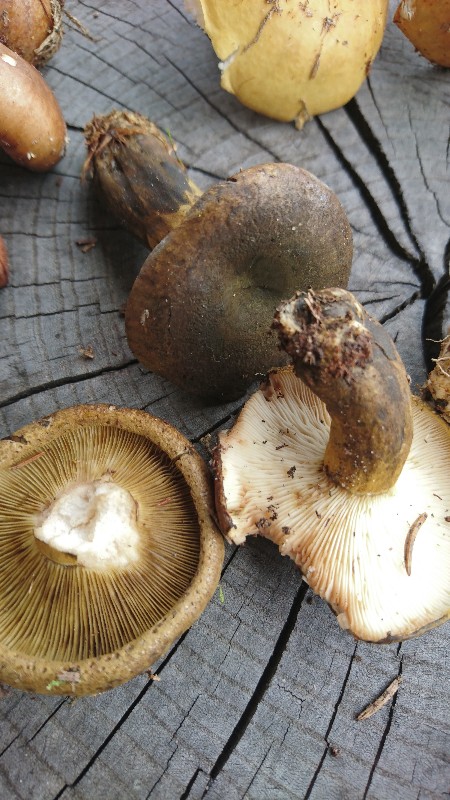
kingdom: Fungi
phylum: Basidiomycota
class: Agaricomycetes
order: Russulales
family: Russulaceae
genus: Lactarius
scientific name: Lactarius necator
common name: manddraber-mælkehat
